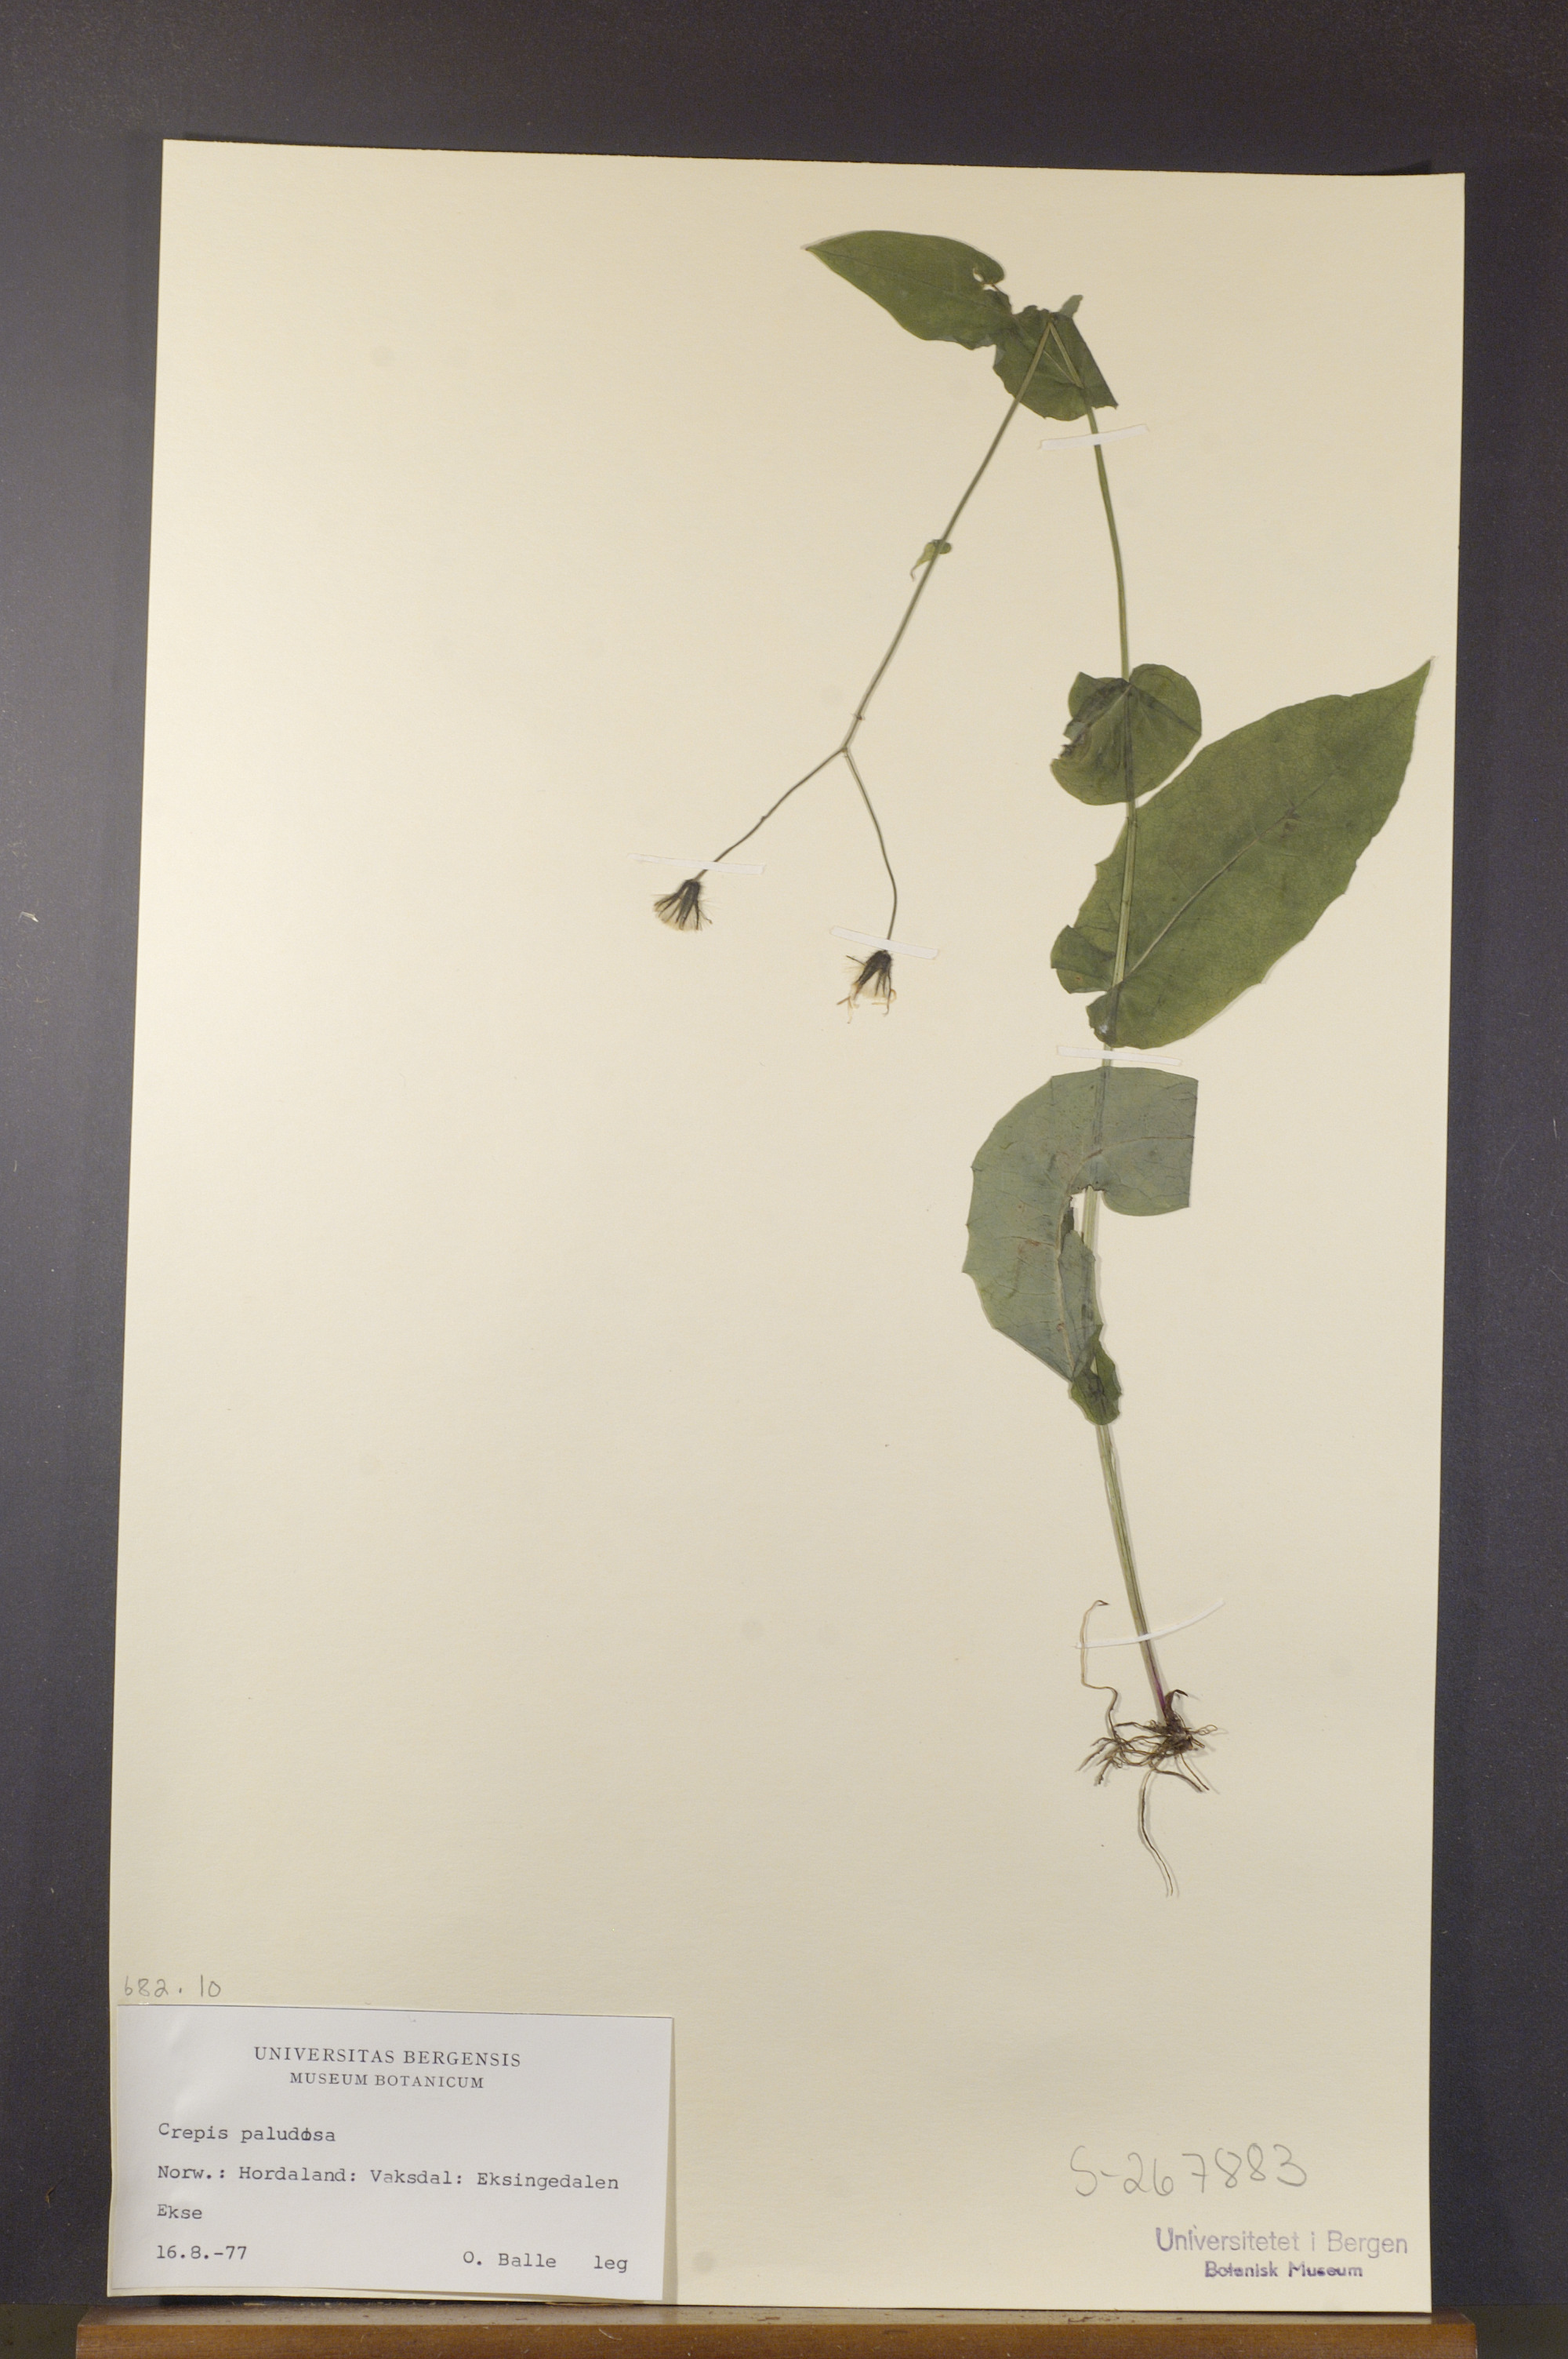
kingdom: Plantae
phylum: Tracheophyta
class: Magnoliopsida
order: Asterales
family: Asteraceae
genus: Crepis
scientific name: Crepis paludosa
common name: Marsh hawk's-beard
